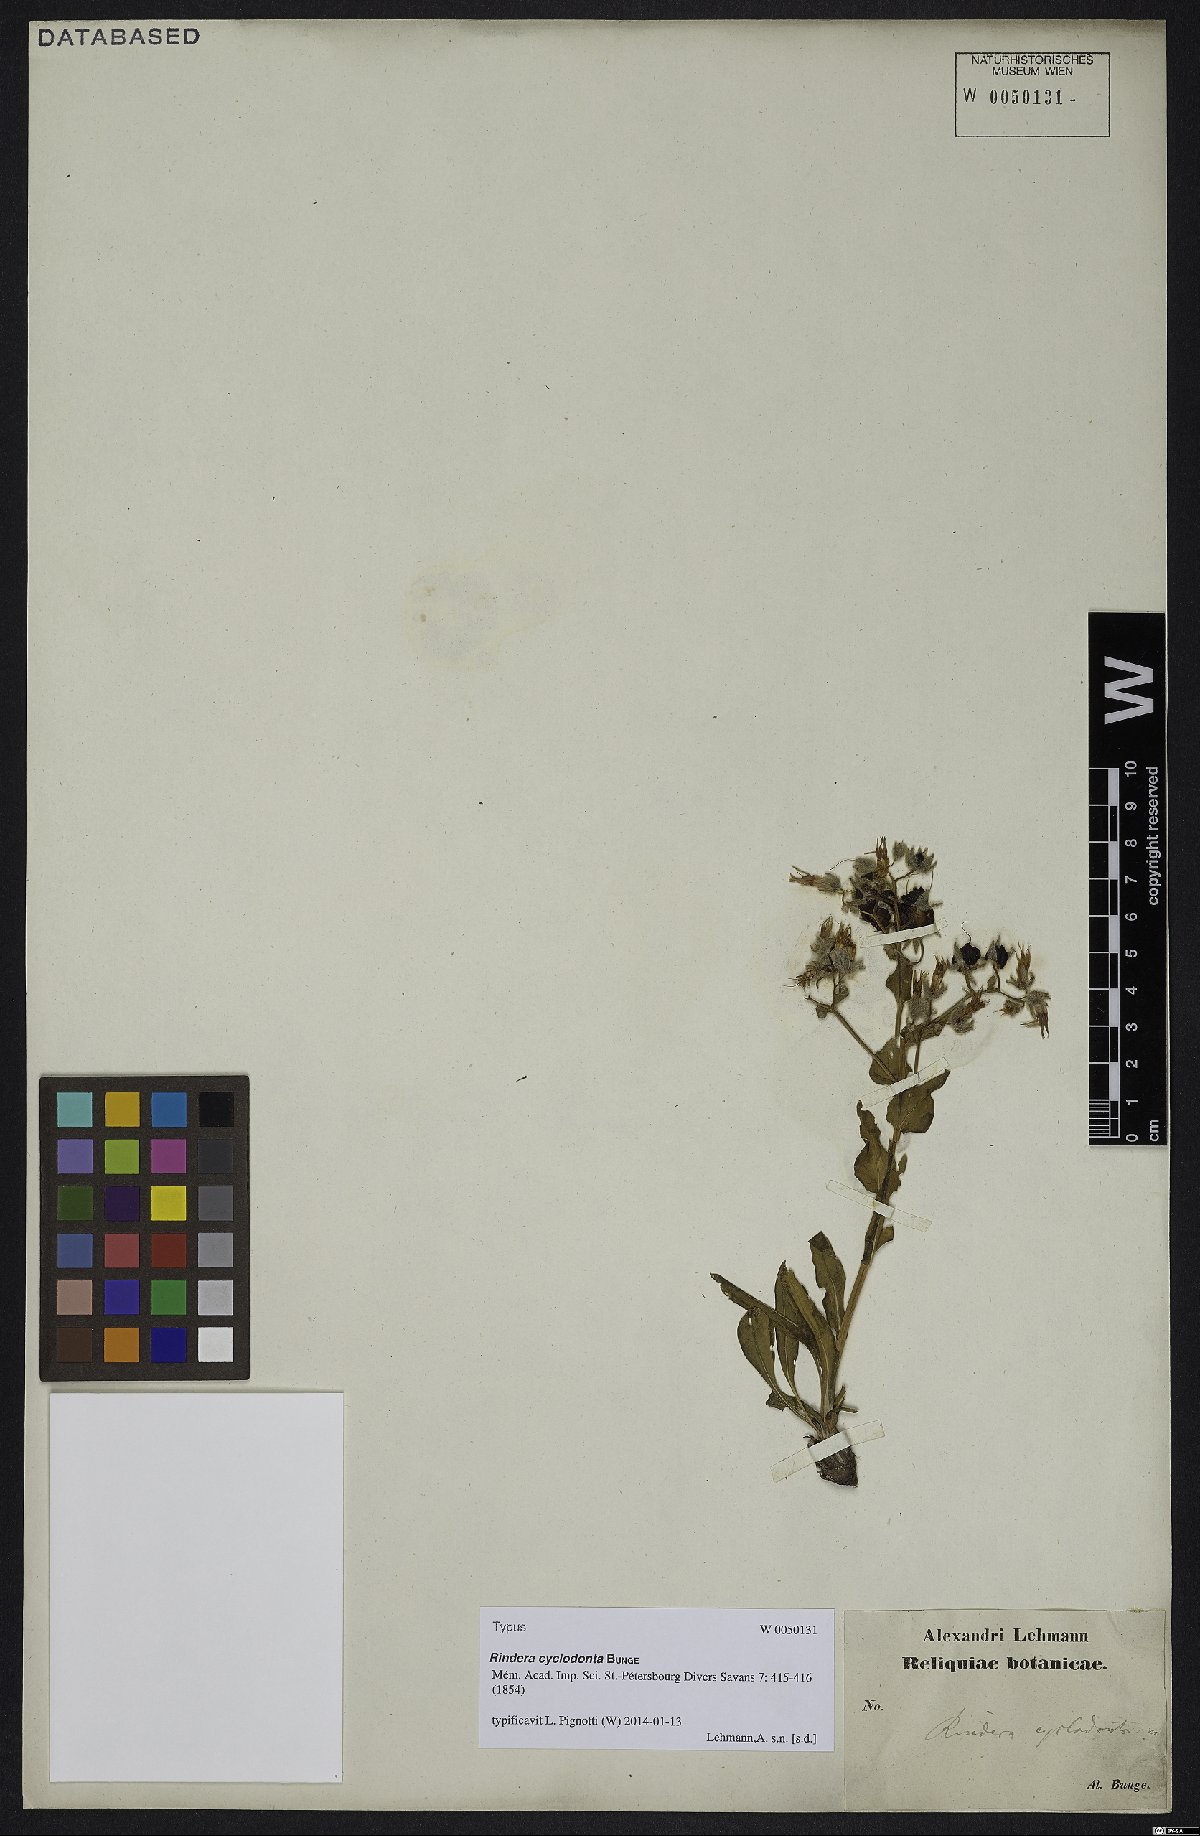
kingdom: Plantae
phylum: Tracheophyta
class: Magnoliopsida
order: Boraginales
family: Boraginaceae
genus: Rindera
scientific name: Rindera tetraspis
